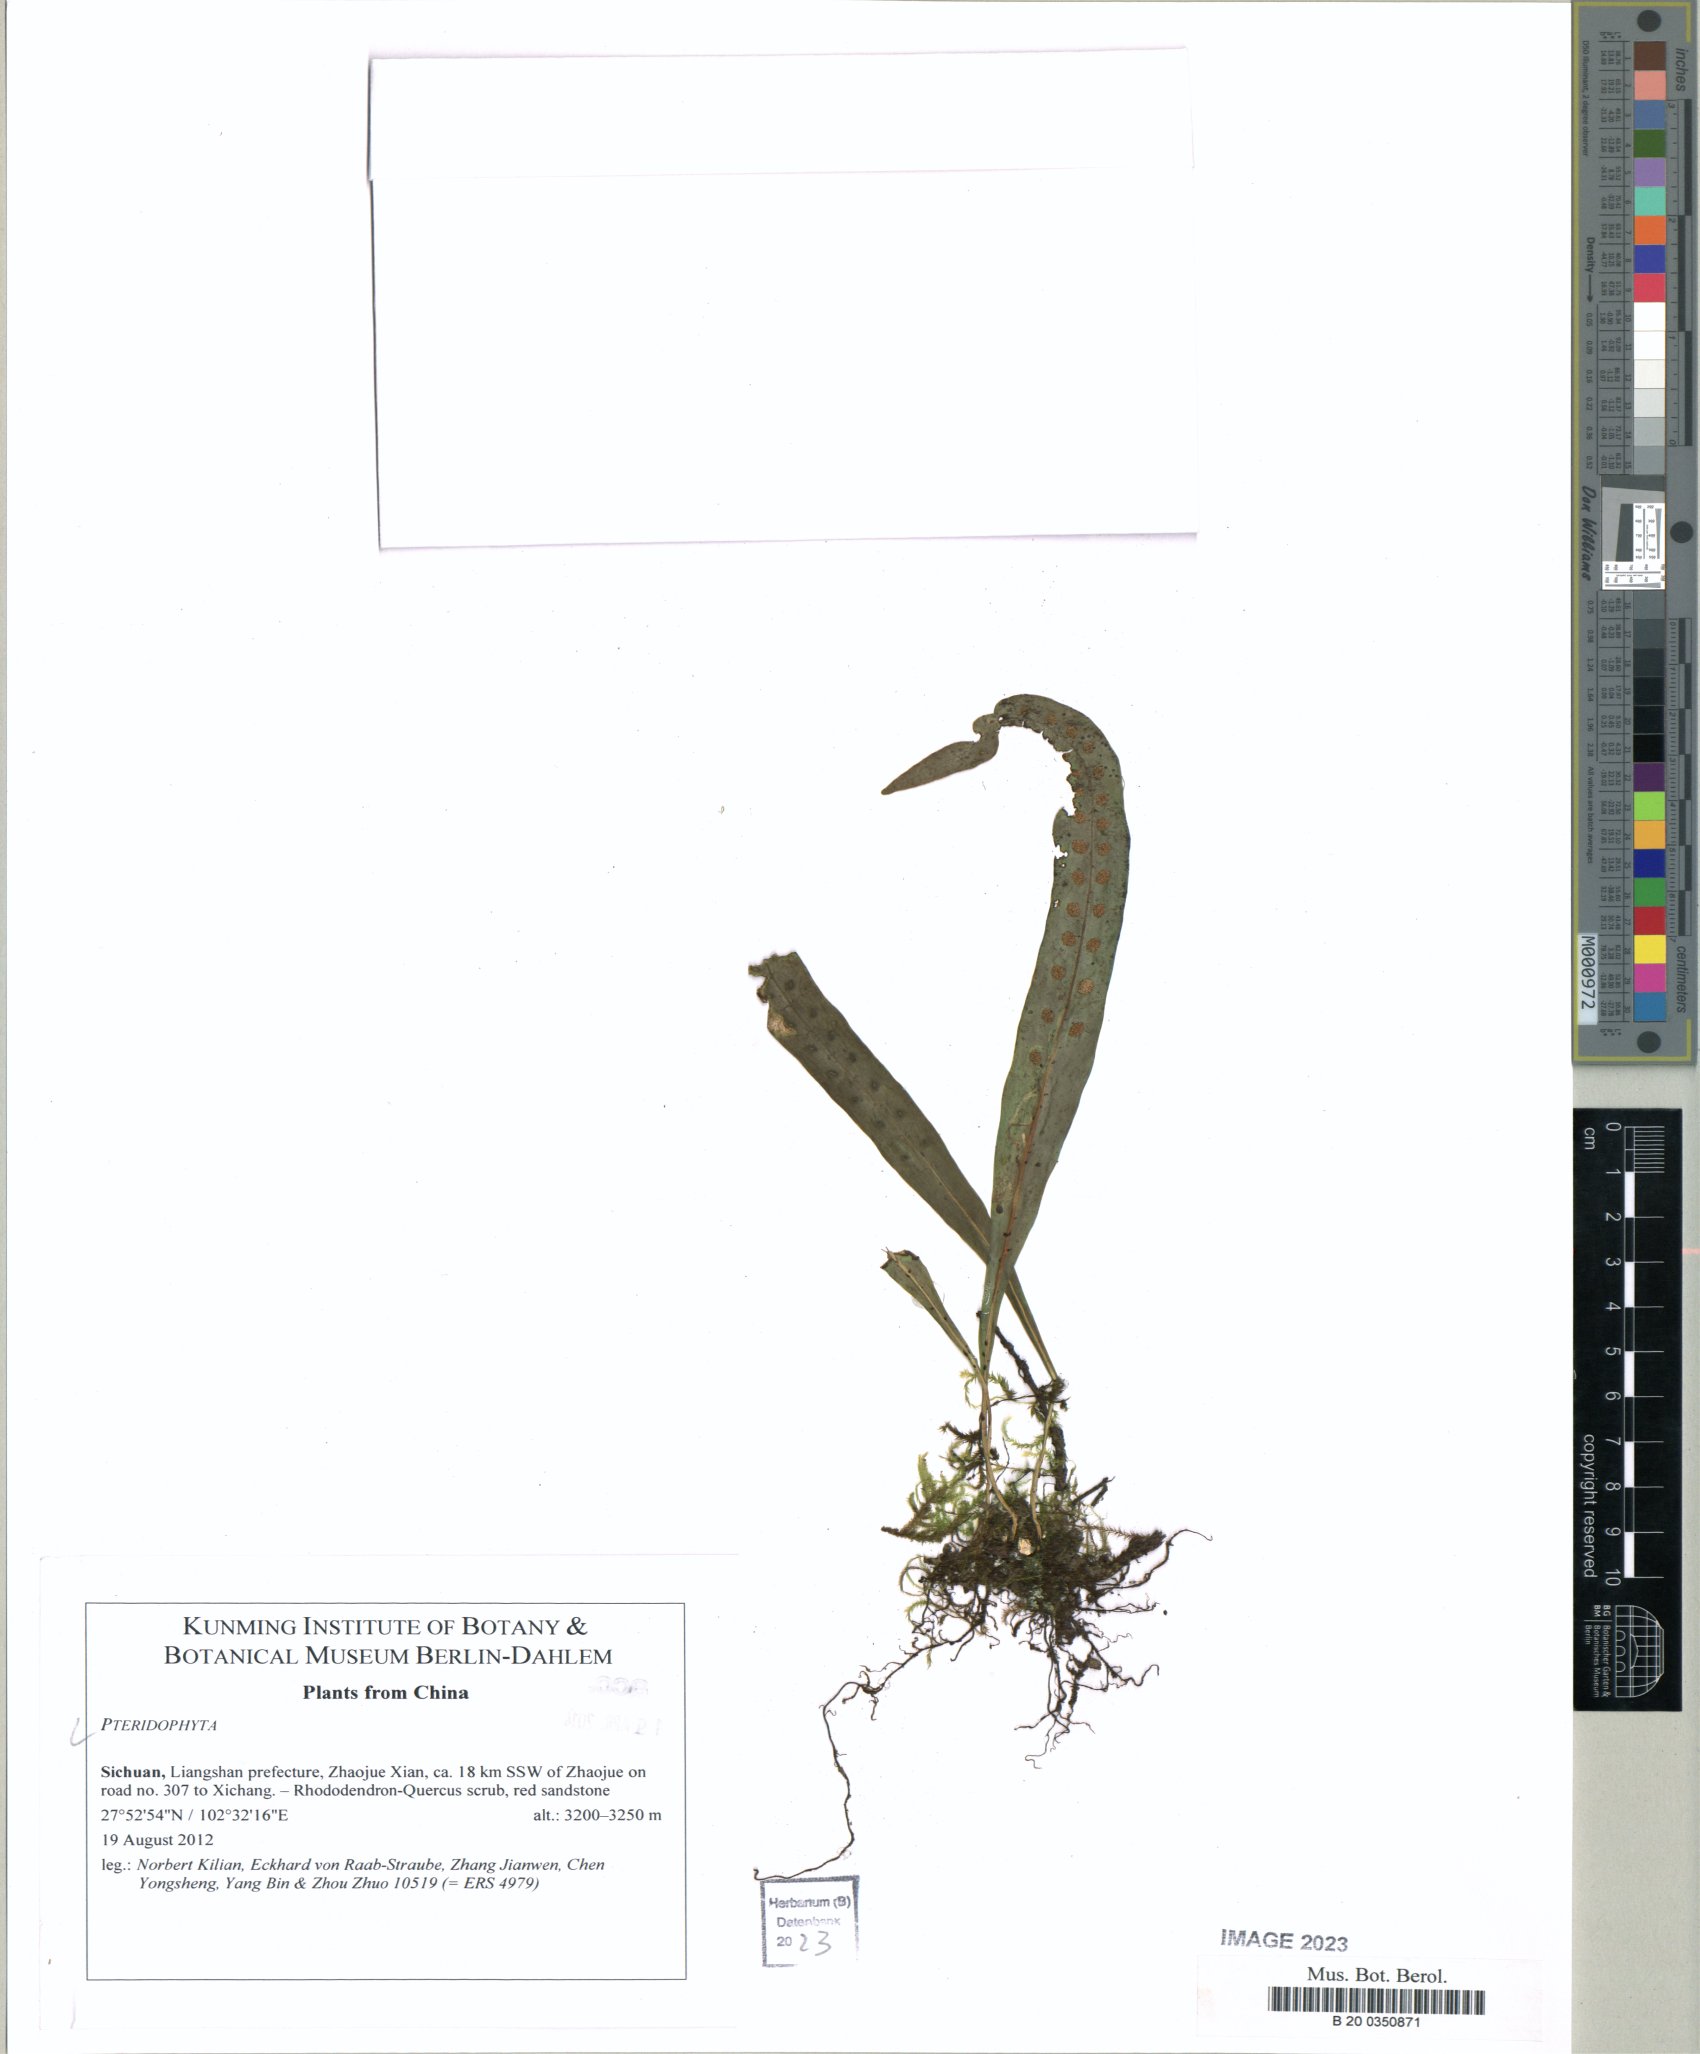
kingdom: Plantae
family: Pteridophyta
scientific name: Pteridophyta
